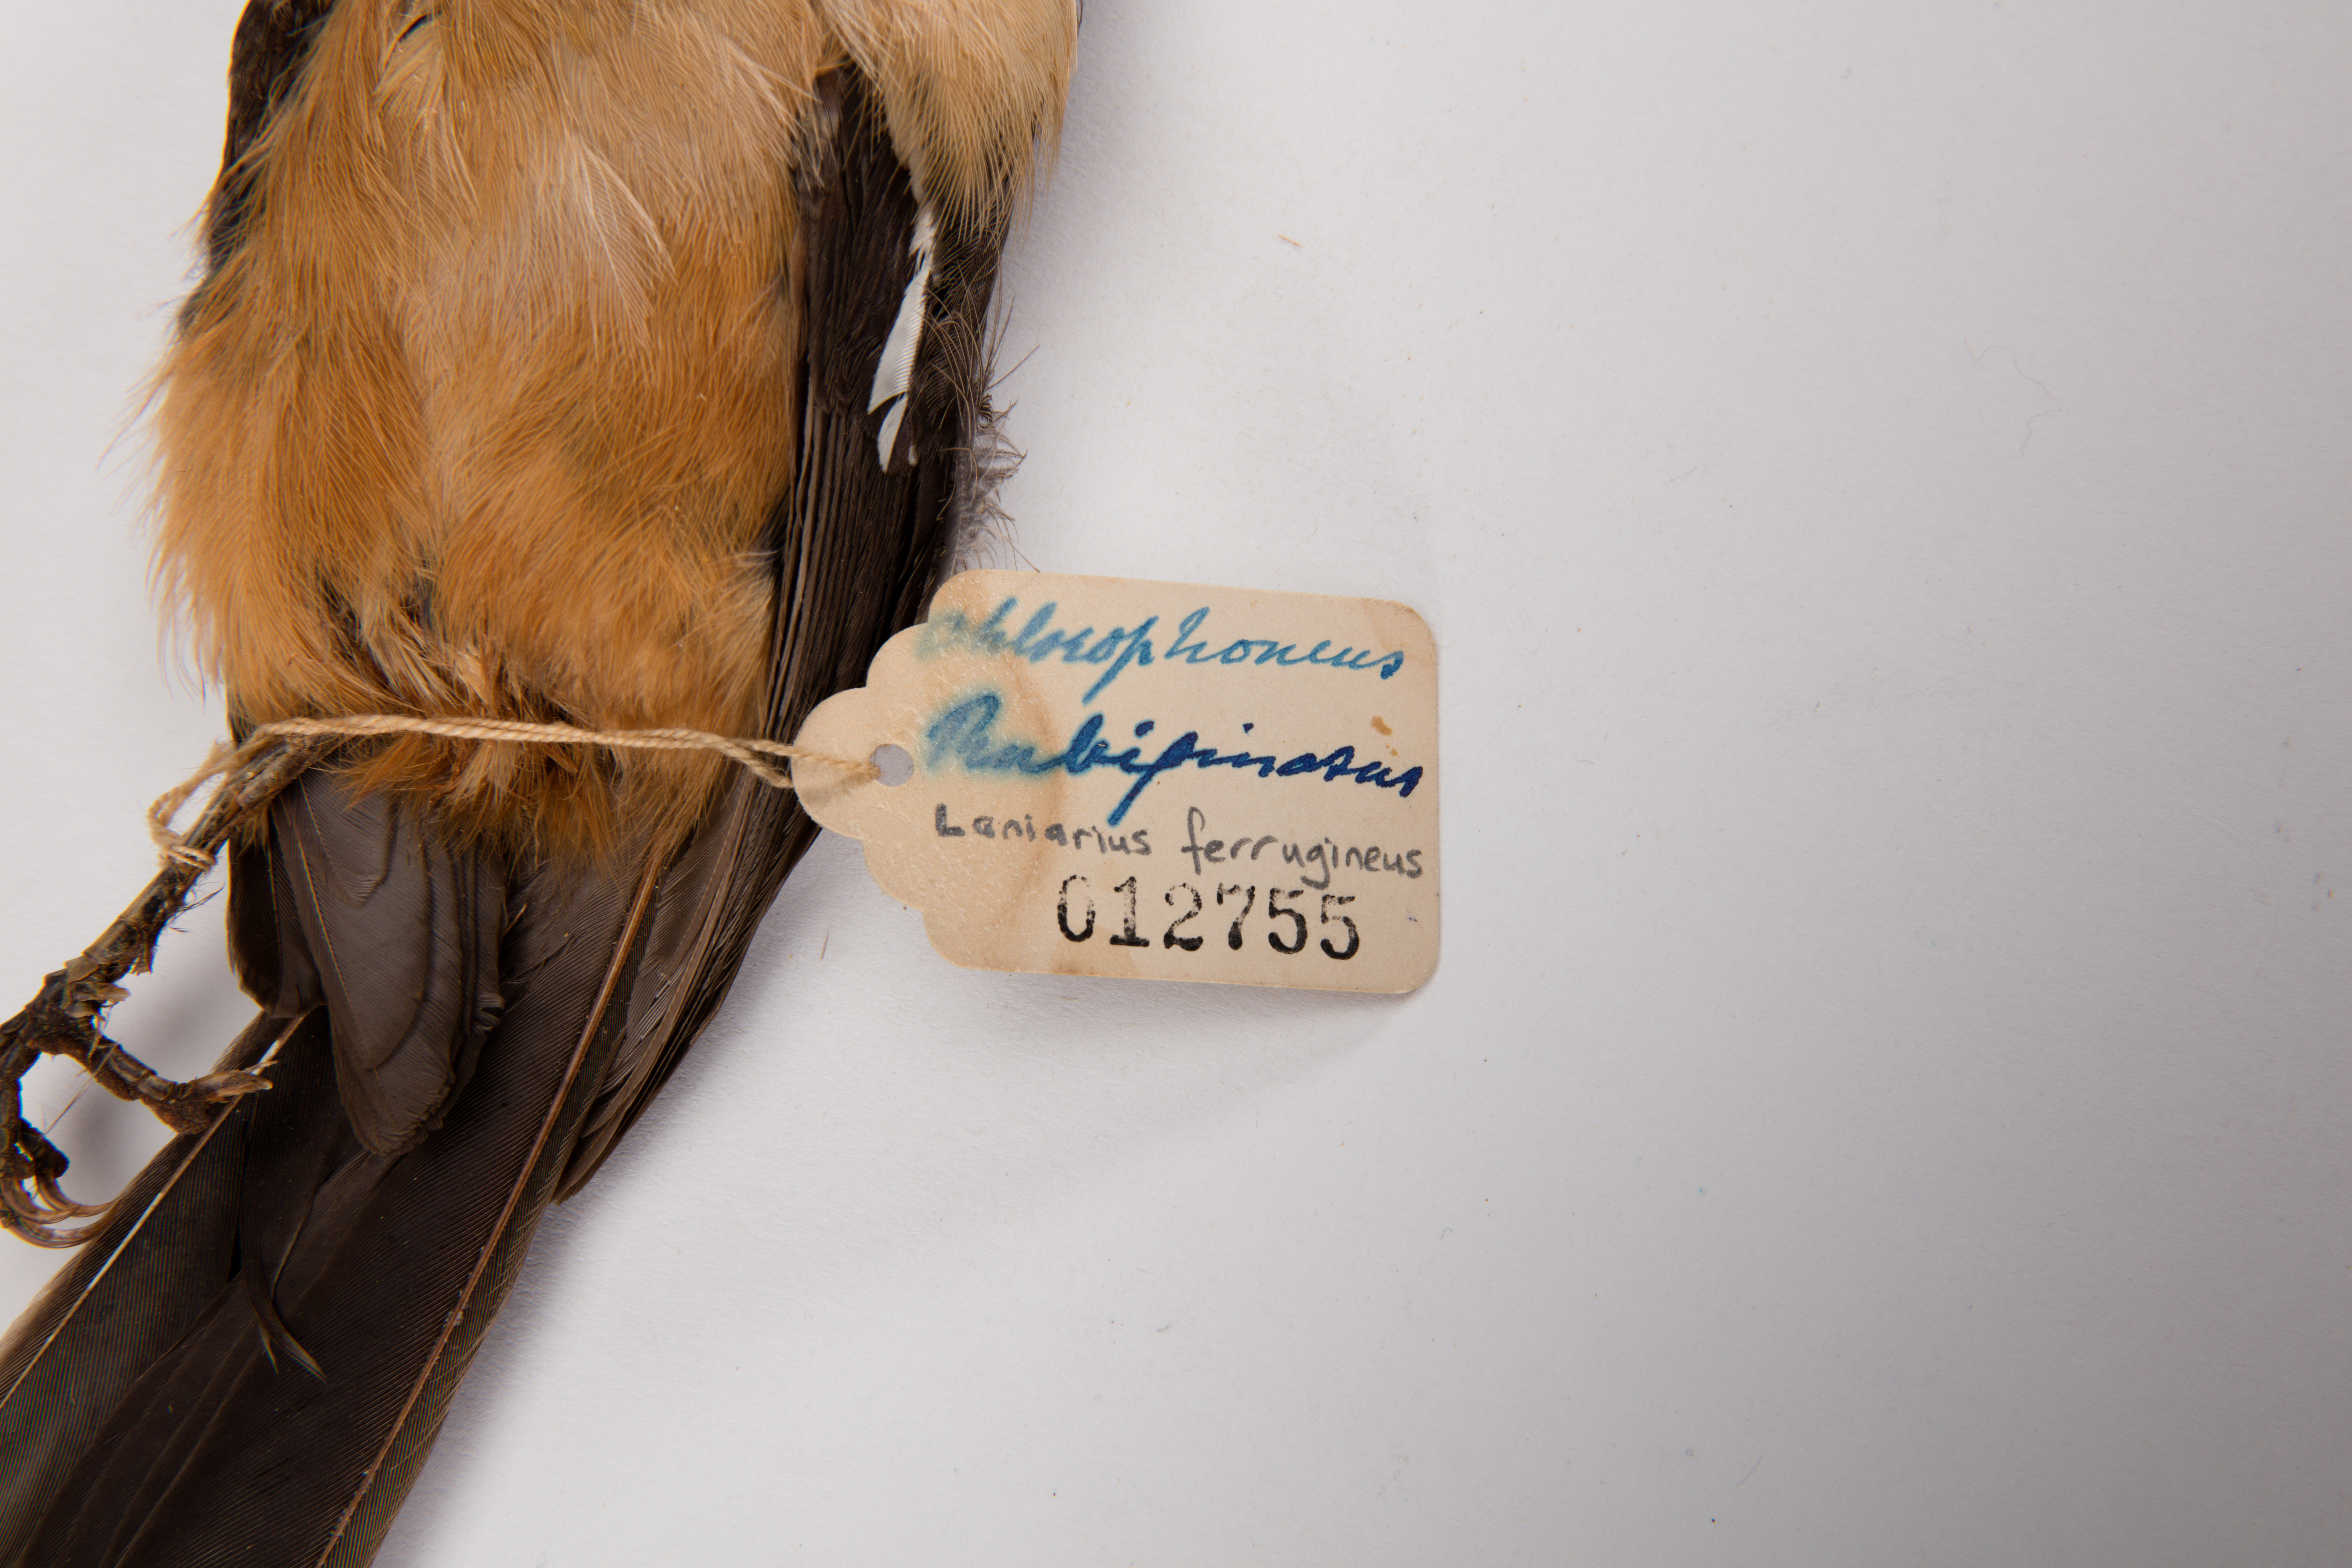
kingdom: Animalia
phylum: Chordata
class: Aves
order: Passeriformes
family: Malaconotidae
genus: Laniarius
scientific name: Laniarius ferrugineus
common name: Southern boubou
